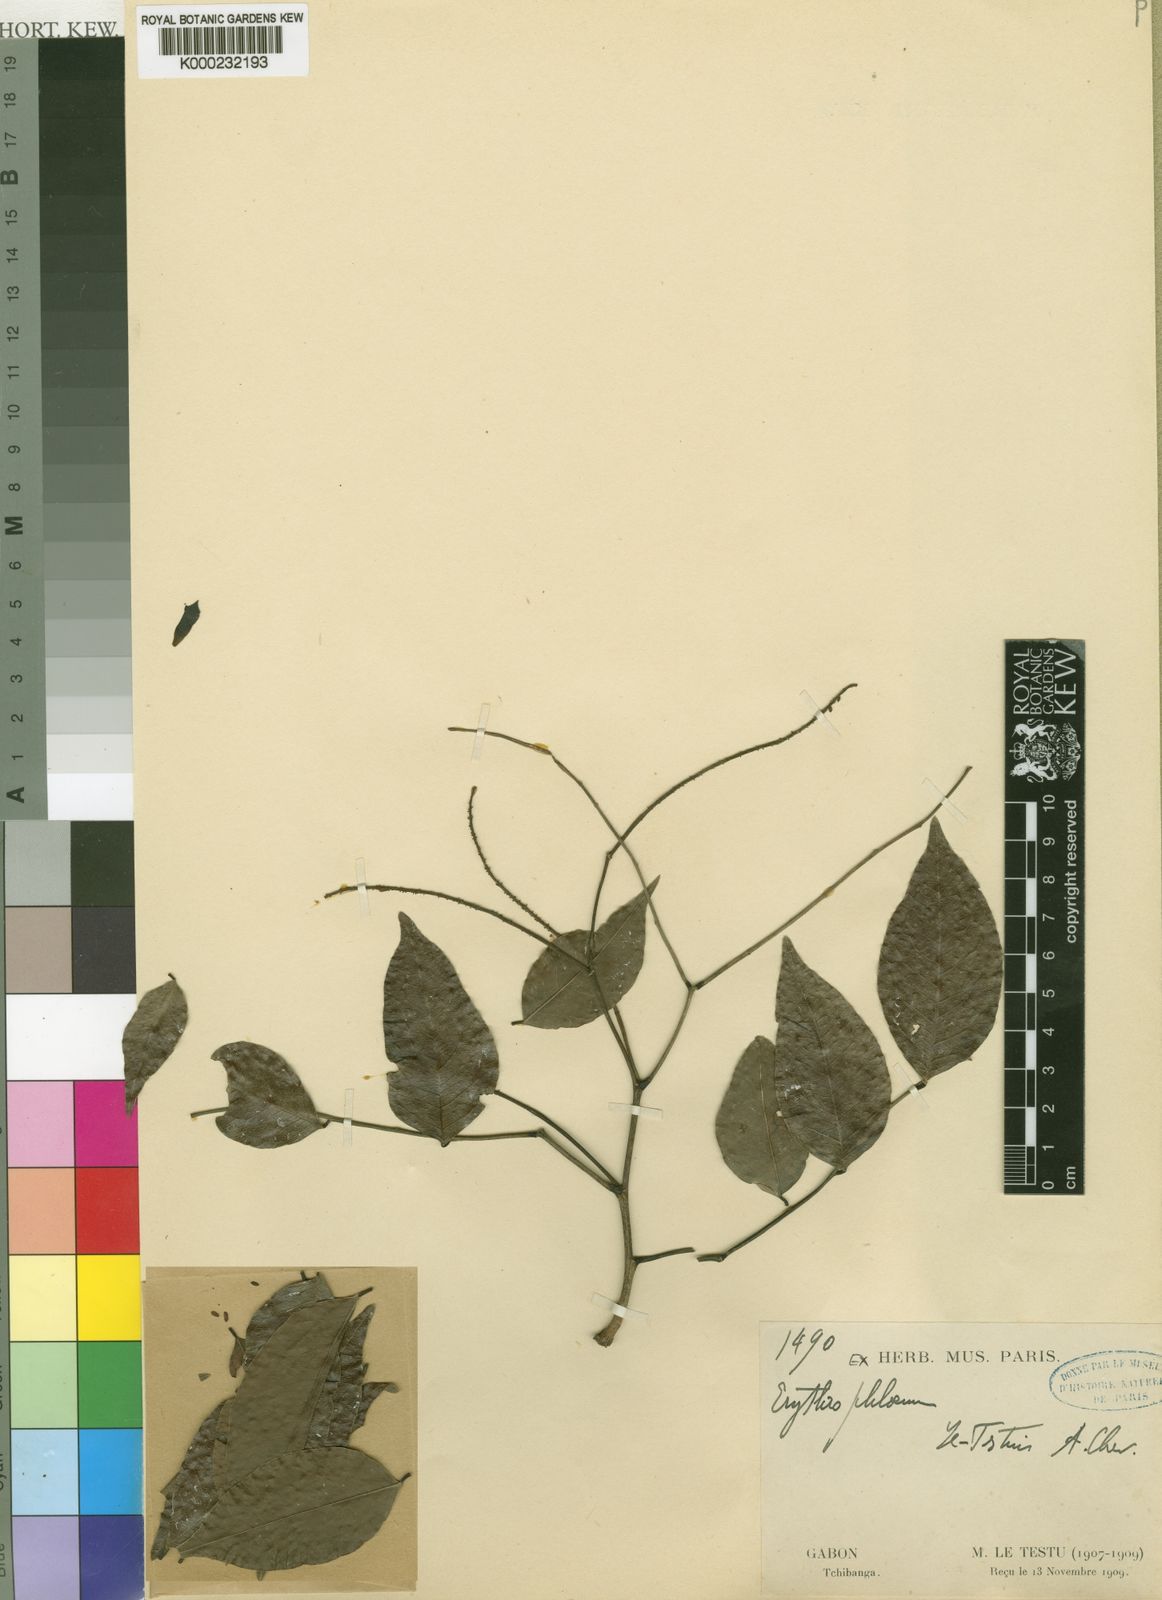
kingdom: Plantae
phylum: Tracheophyta
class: Magnoliopsida
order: Fabales
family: Fabaceae
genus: Erythrophleum
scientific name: Erythrophleum letestui
